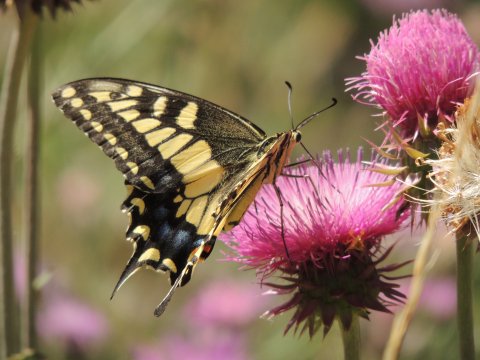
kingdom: Animalia
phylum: Arthropoda
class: Insecta
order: Lepidoptera
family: Papilionidae
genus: Papilio
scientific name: Papilio machaon
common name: Old World Swallowtail
